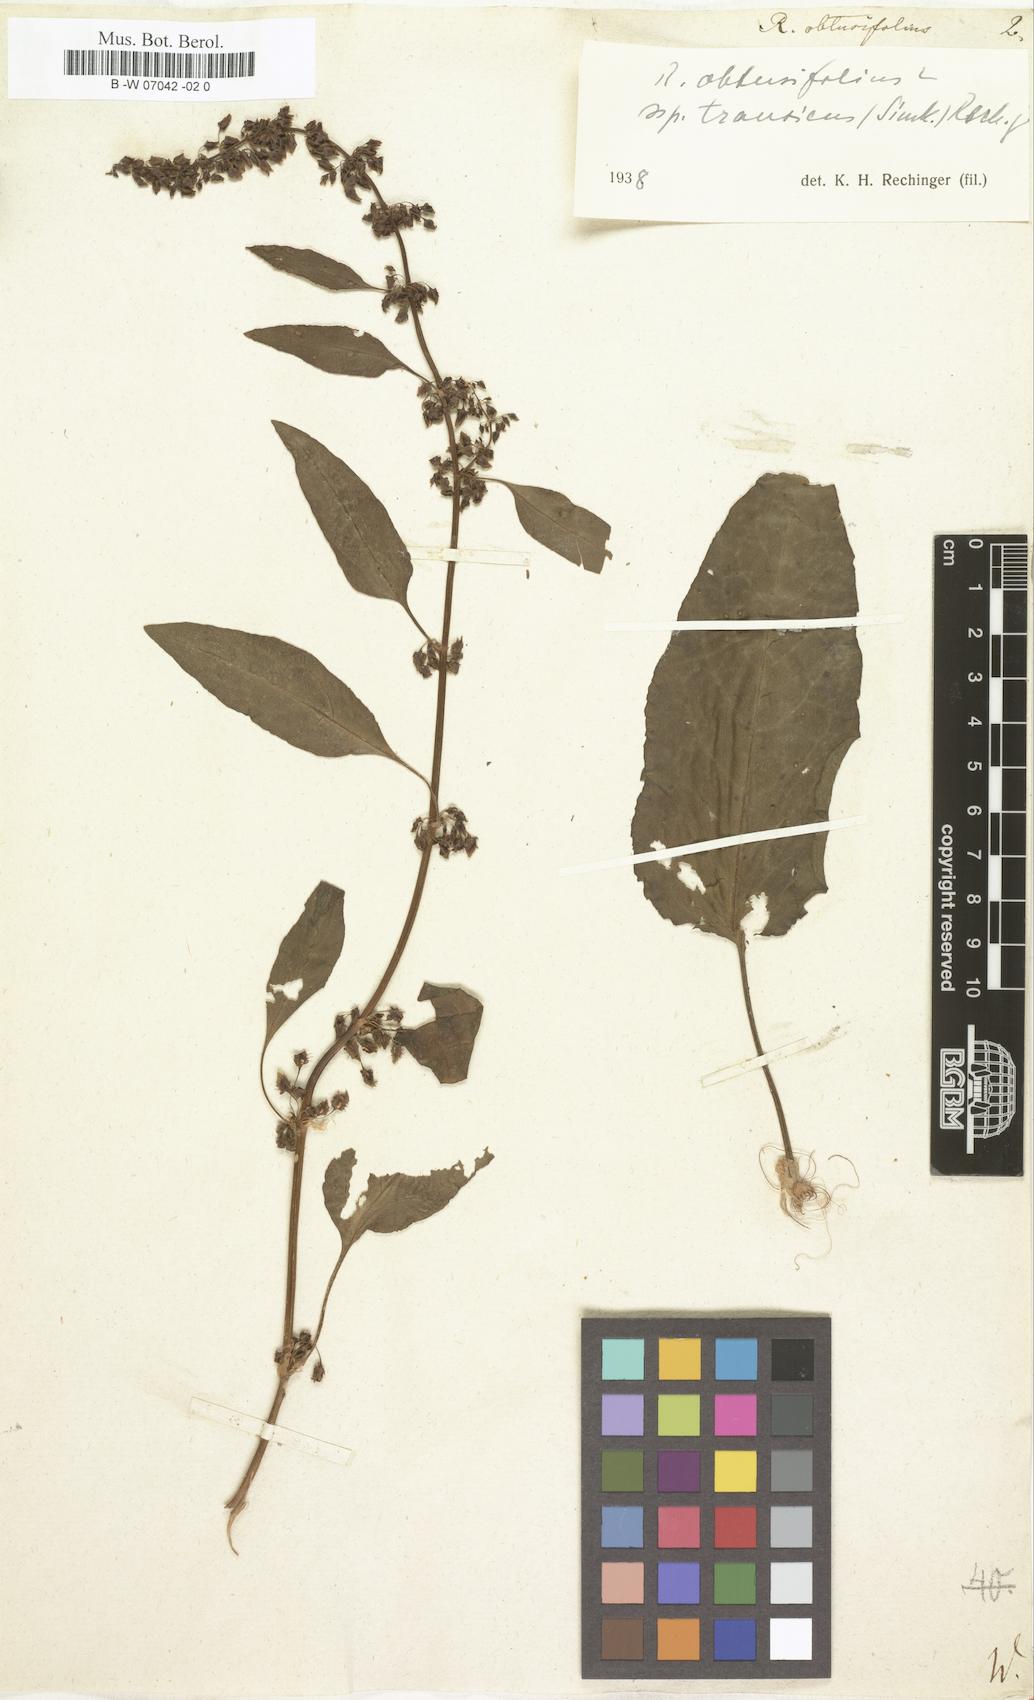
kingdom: Plantae
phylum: Tracheophyta
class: Magnoliopsida
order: Caryophyllales
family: Polygonaceae
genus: Rumex
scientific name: Rumex obtusifolius
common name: Bitter dock
